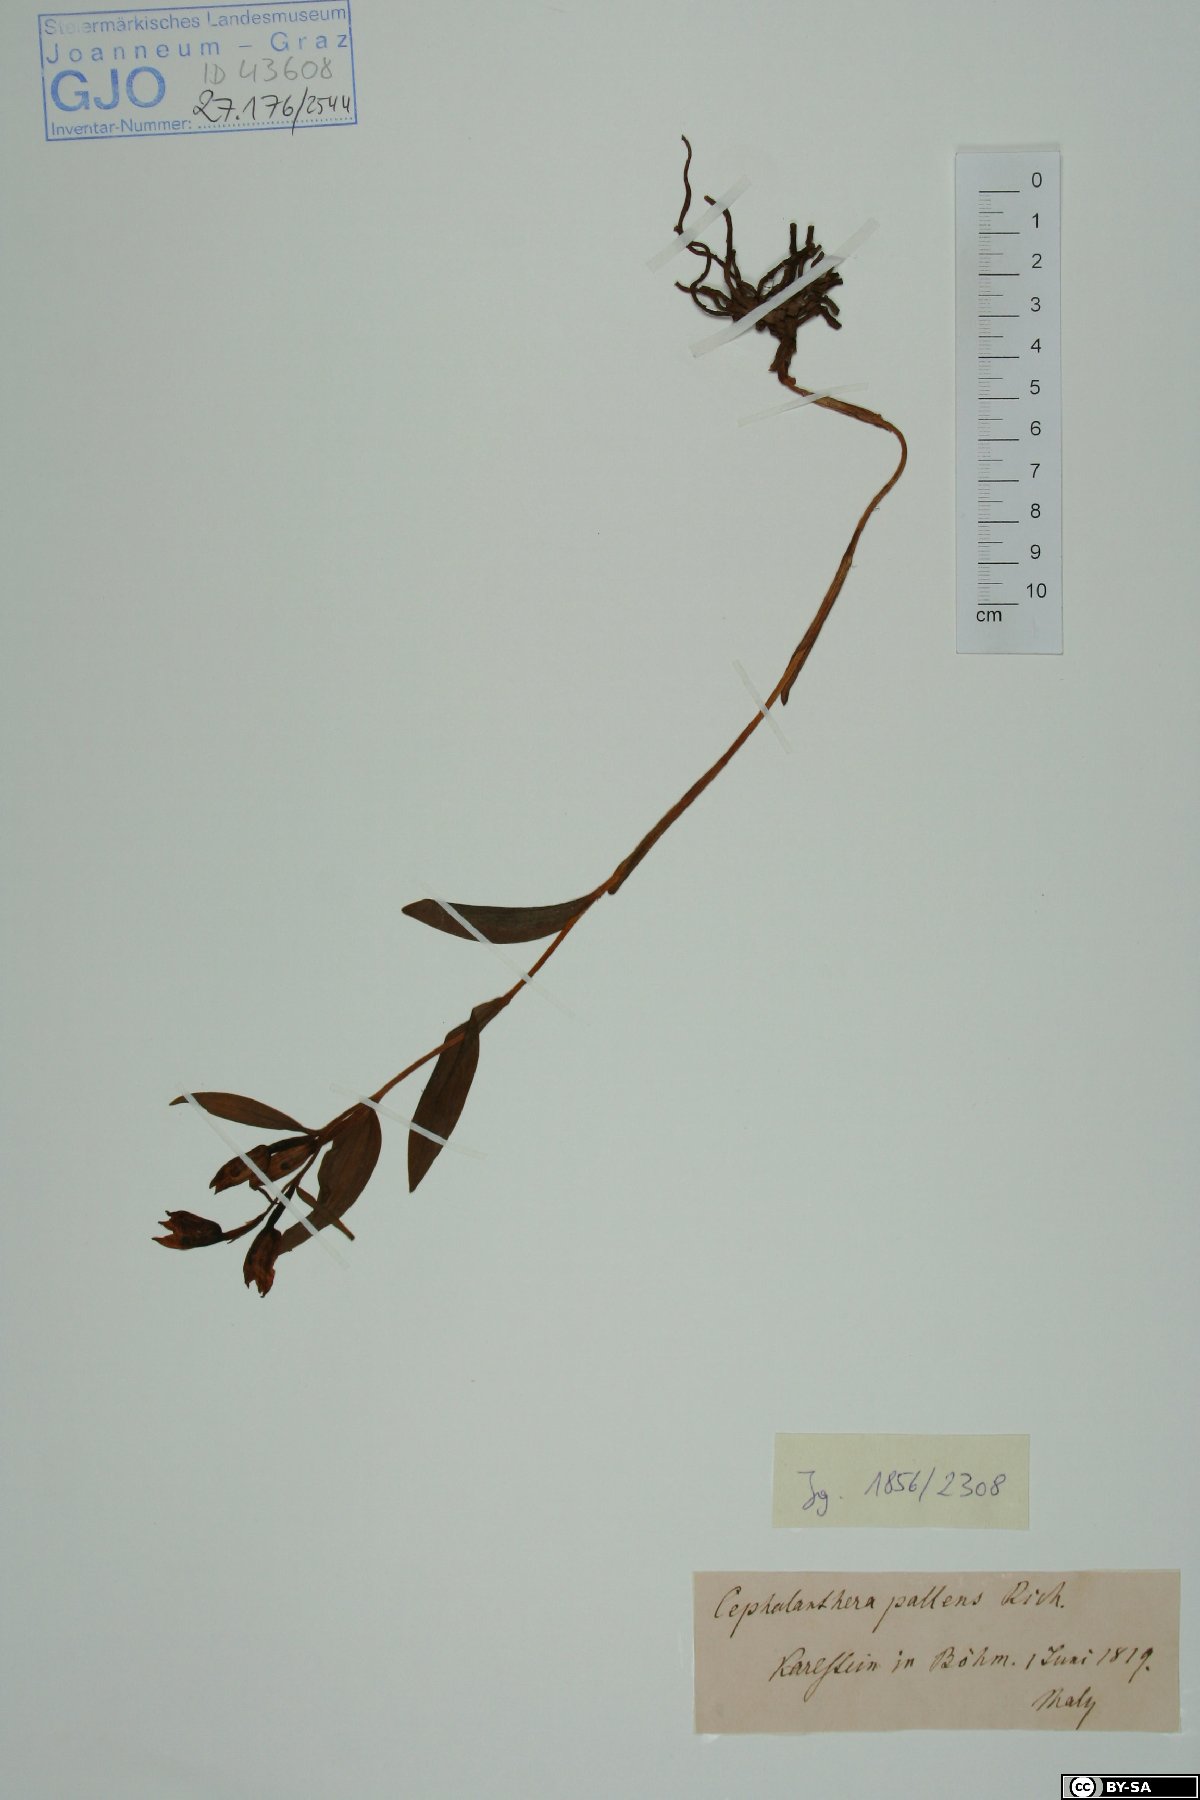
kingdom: Plantae
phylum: Tracheophyta
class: Liliopsida
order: Asparagales
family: Orchidaceae
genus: Cephalanthera
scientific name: Cephalanthera longifolia
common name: Narrow-leaved helleborine
